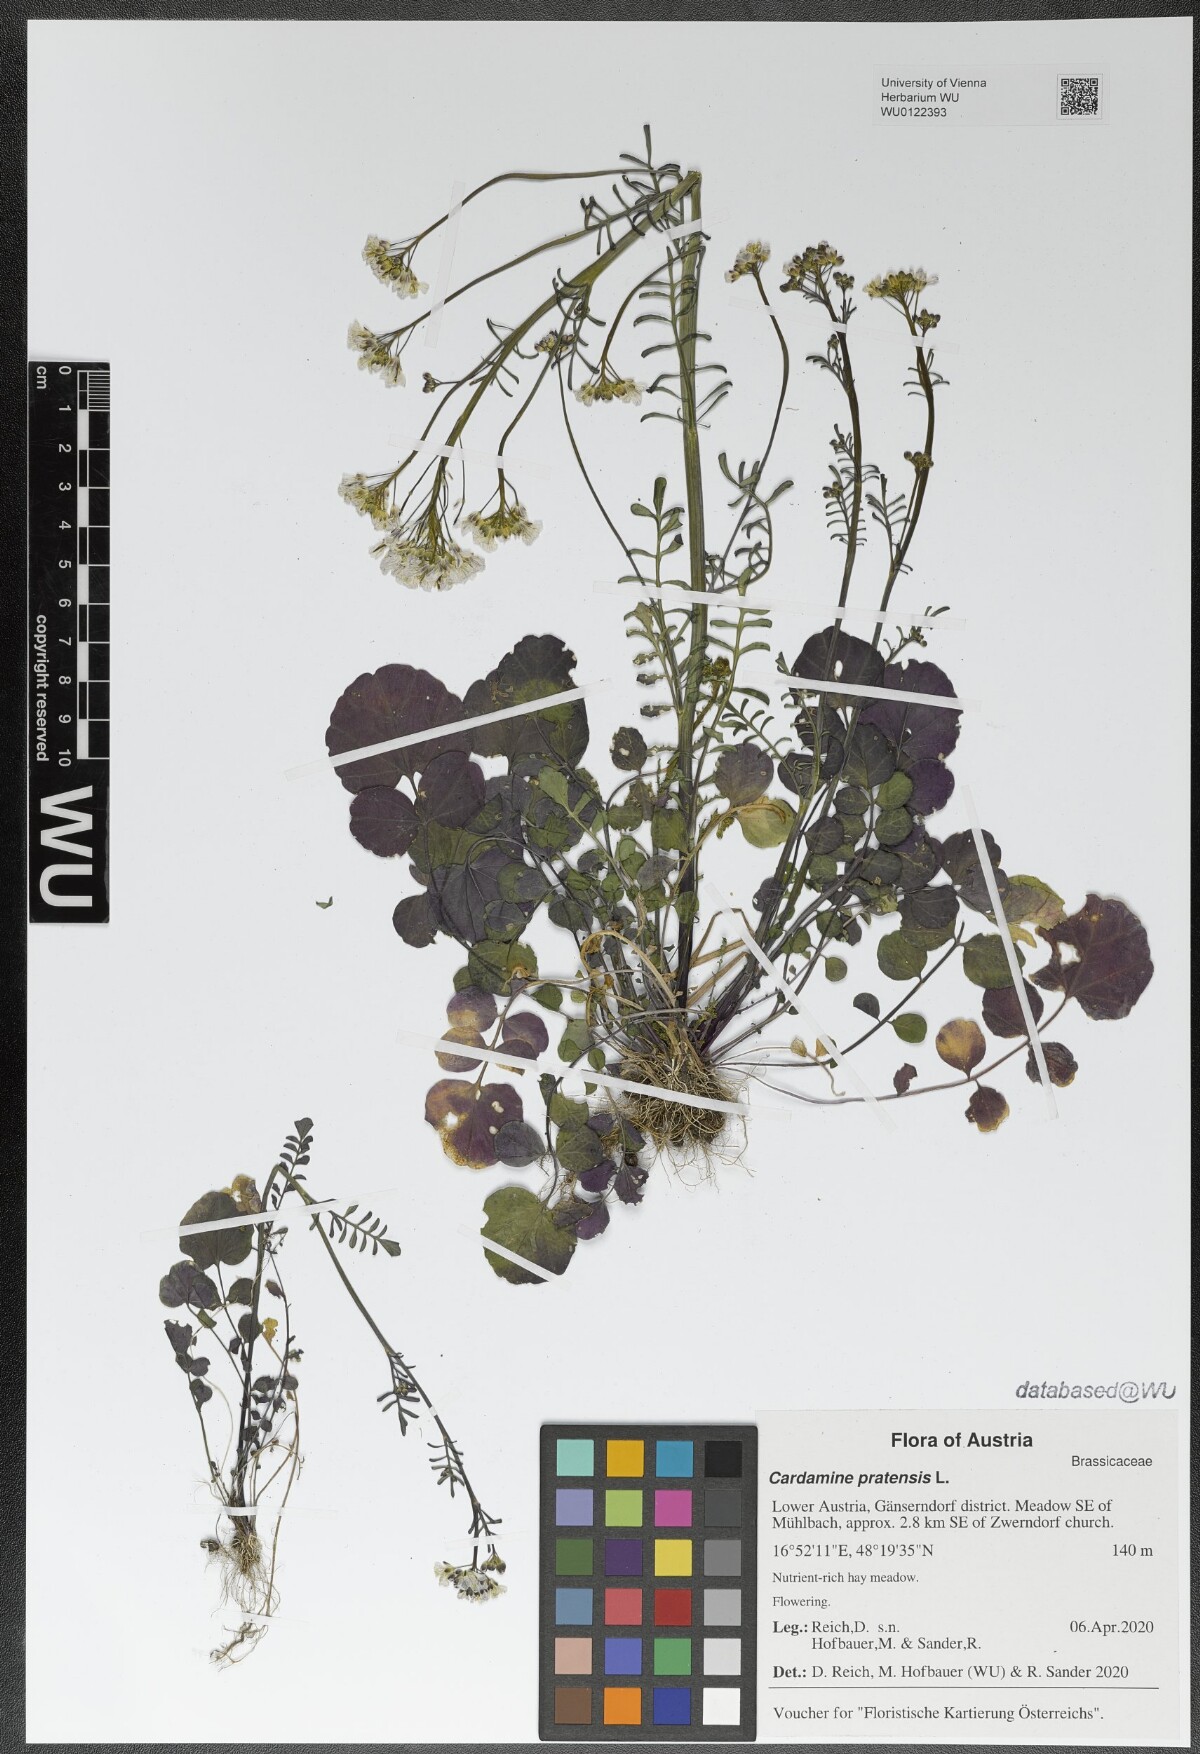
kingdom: Plantae
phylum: Tracheophyta
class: Magnoliopsida
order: Brassicales
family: Brassicaceae
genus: Cardamine
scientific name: Cardamine pratensis
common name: Cuckoo flower
